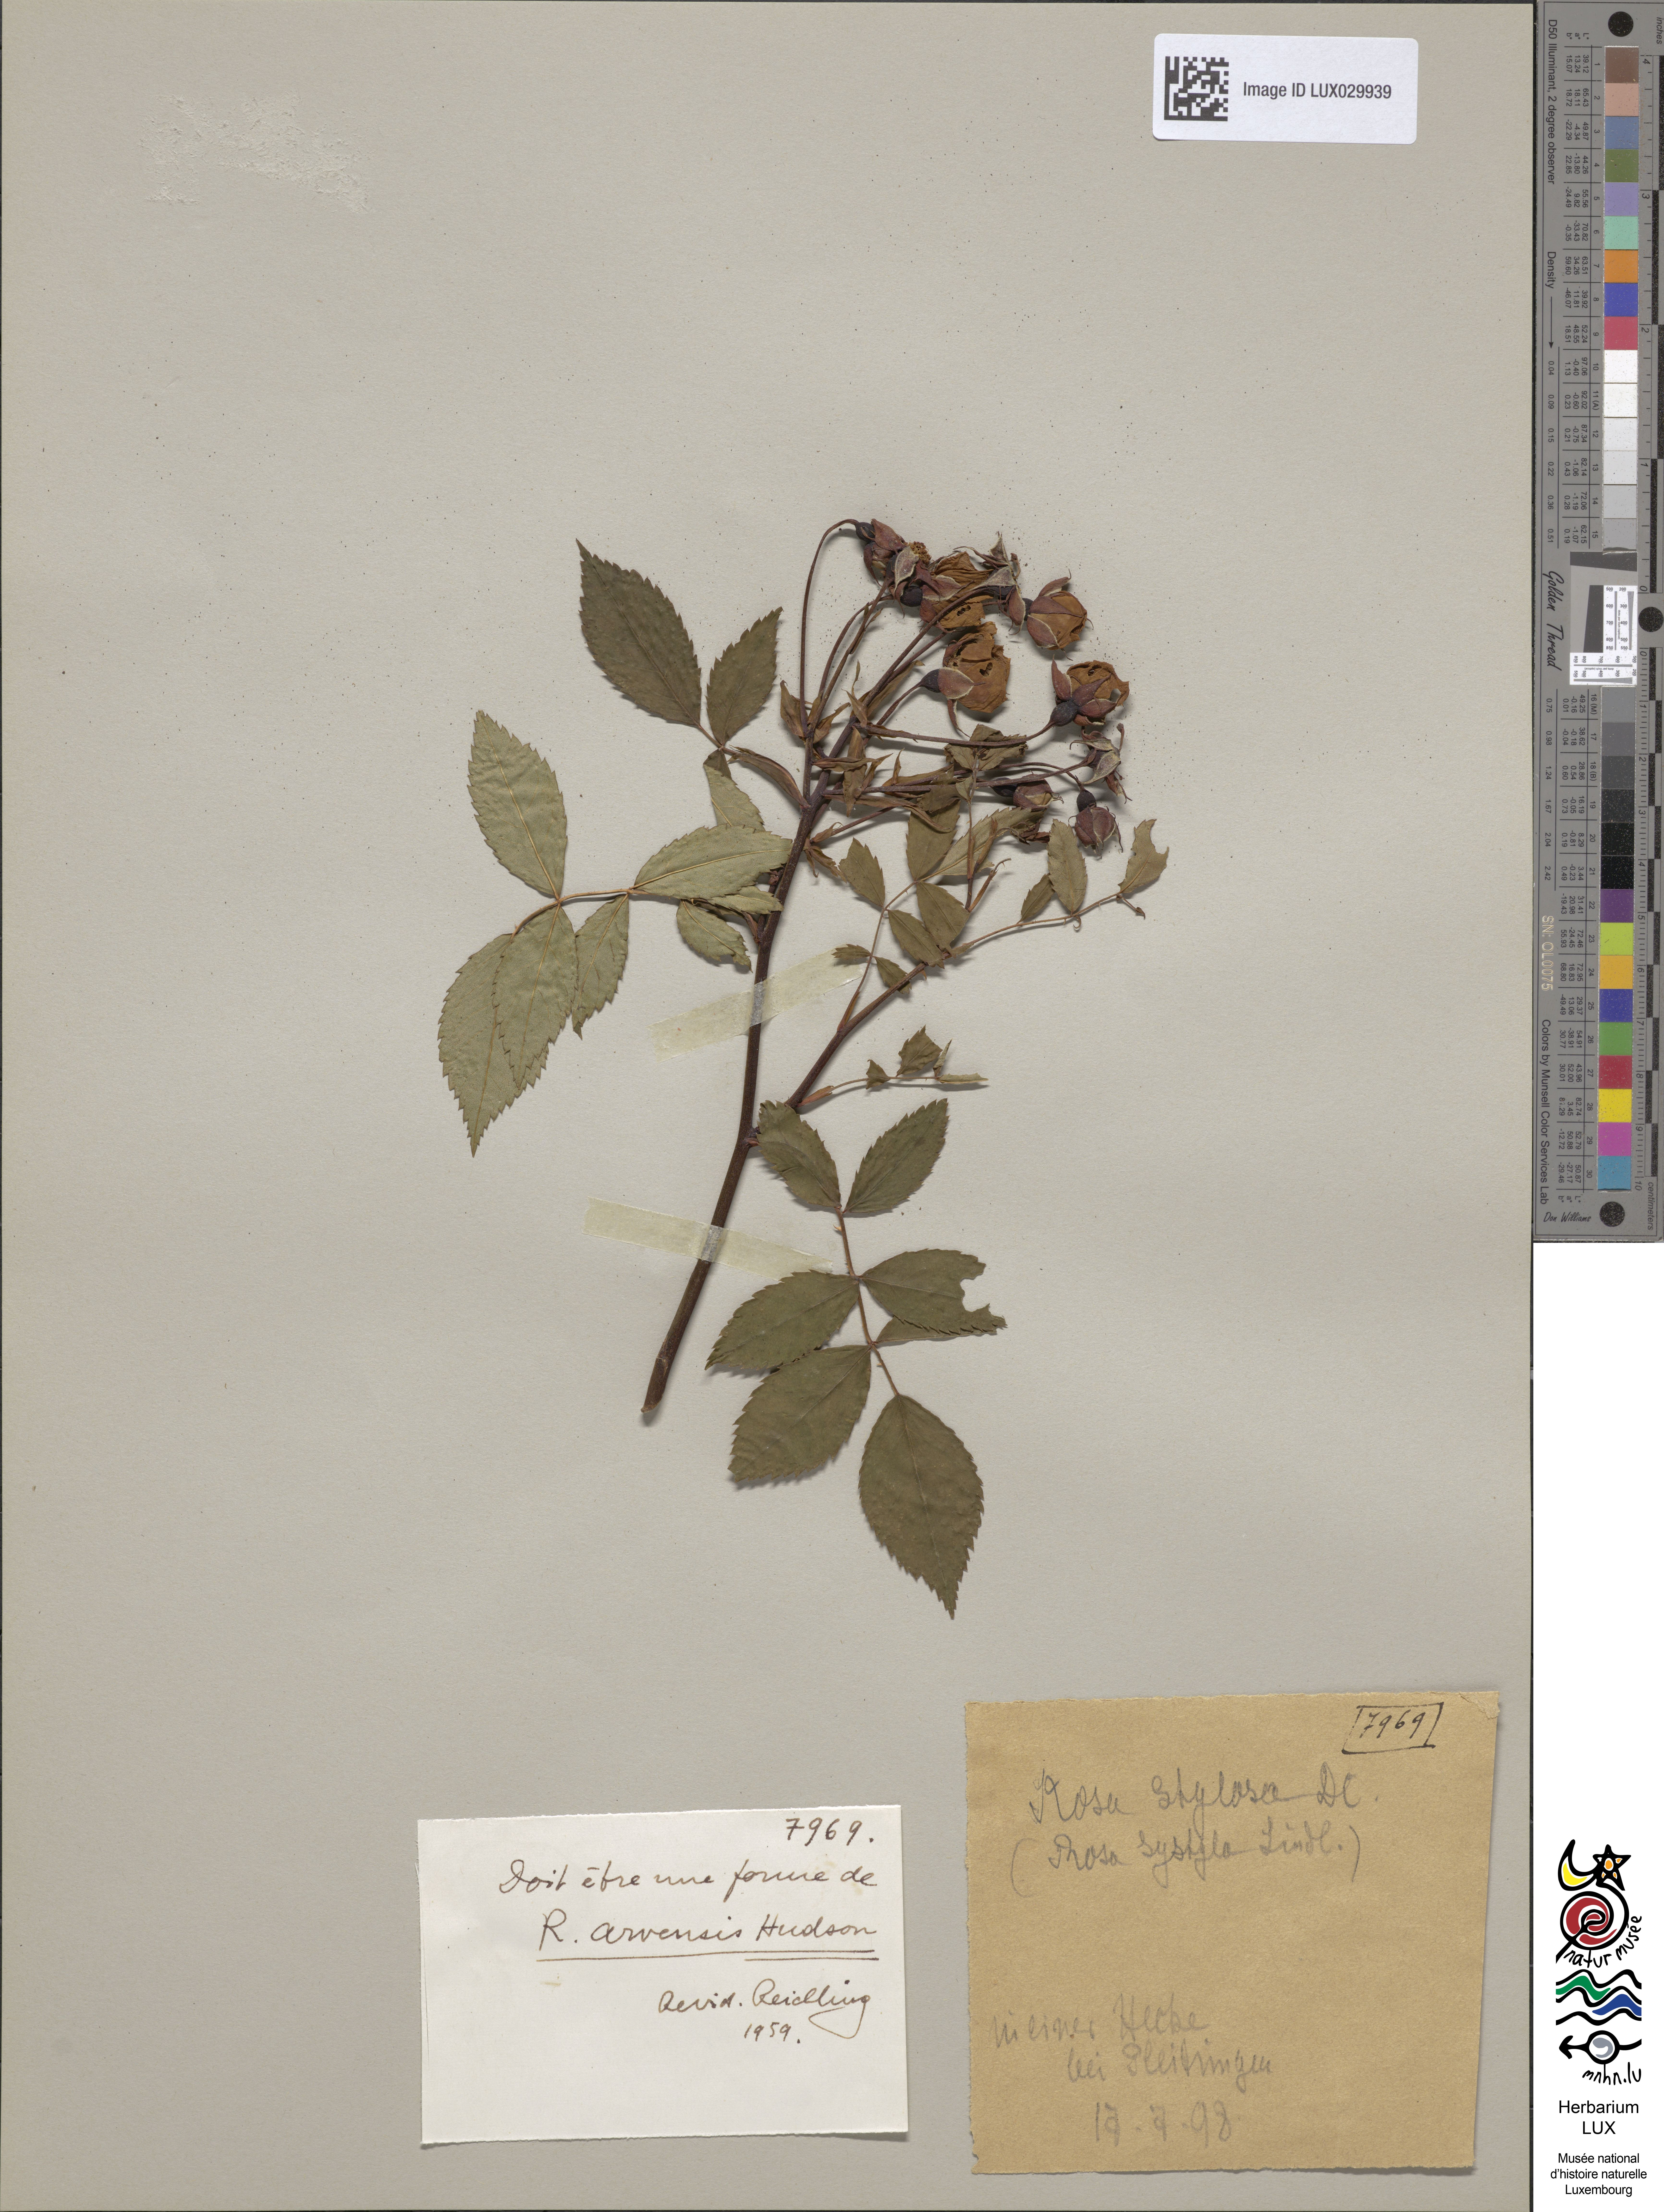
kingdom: Plantae
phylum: Tracheophyta
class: Magnoliopsida
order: Rosales
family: Rosaceae
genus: Rosa
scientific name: Rosa stylosa
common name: Short-styled field-rose
